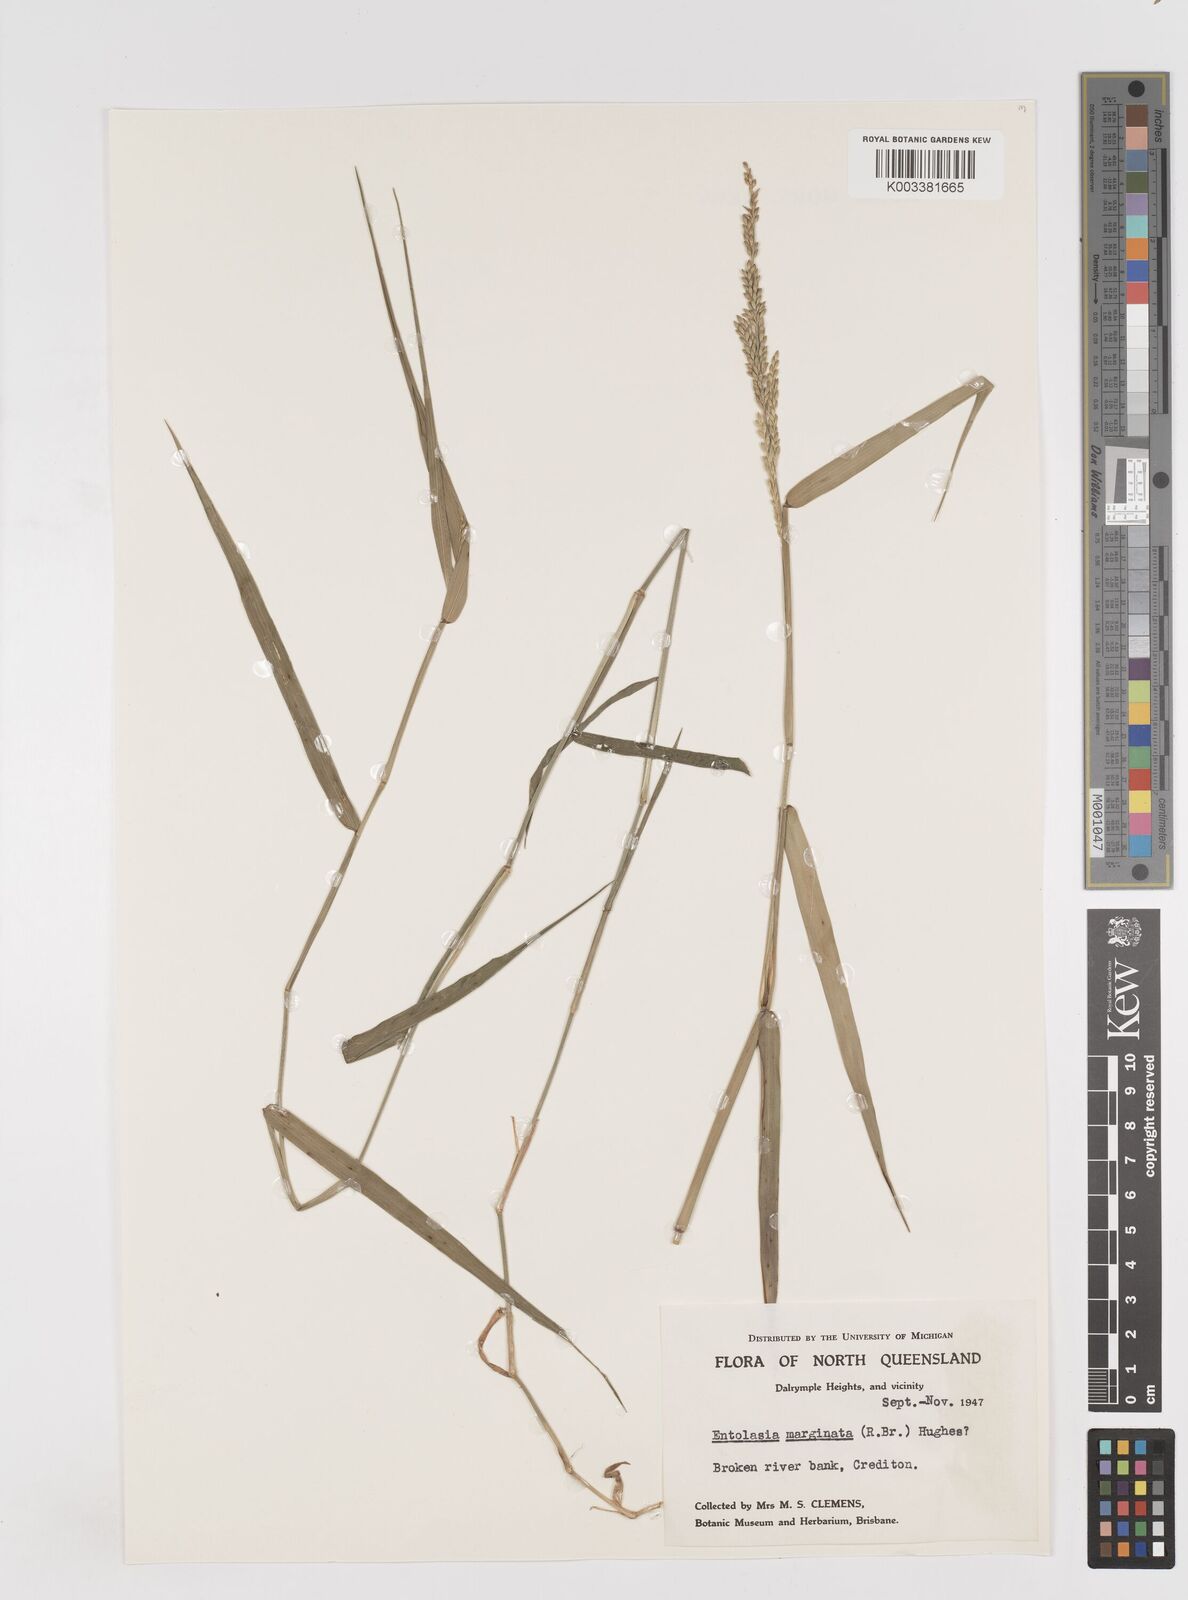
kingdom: Plantae
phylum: Tracheophyta
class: Liliopsida
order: Poales
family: Poaceae
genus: Entolasia
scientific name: Entolasia marginata
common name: Australian panicgrass
